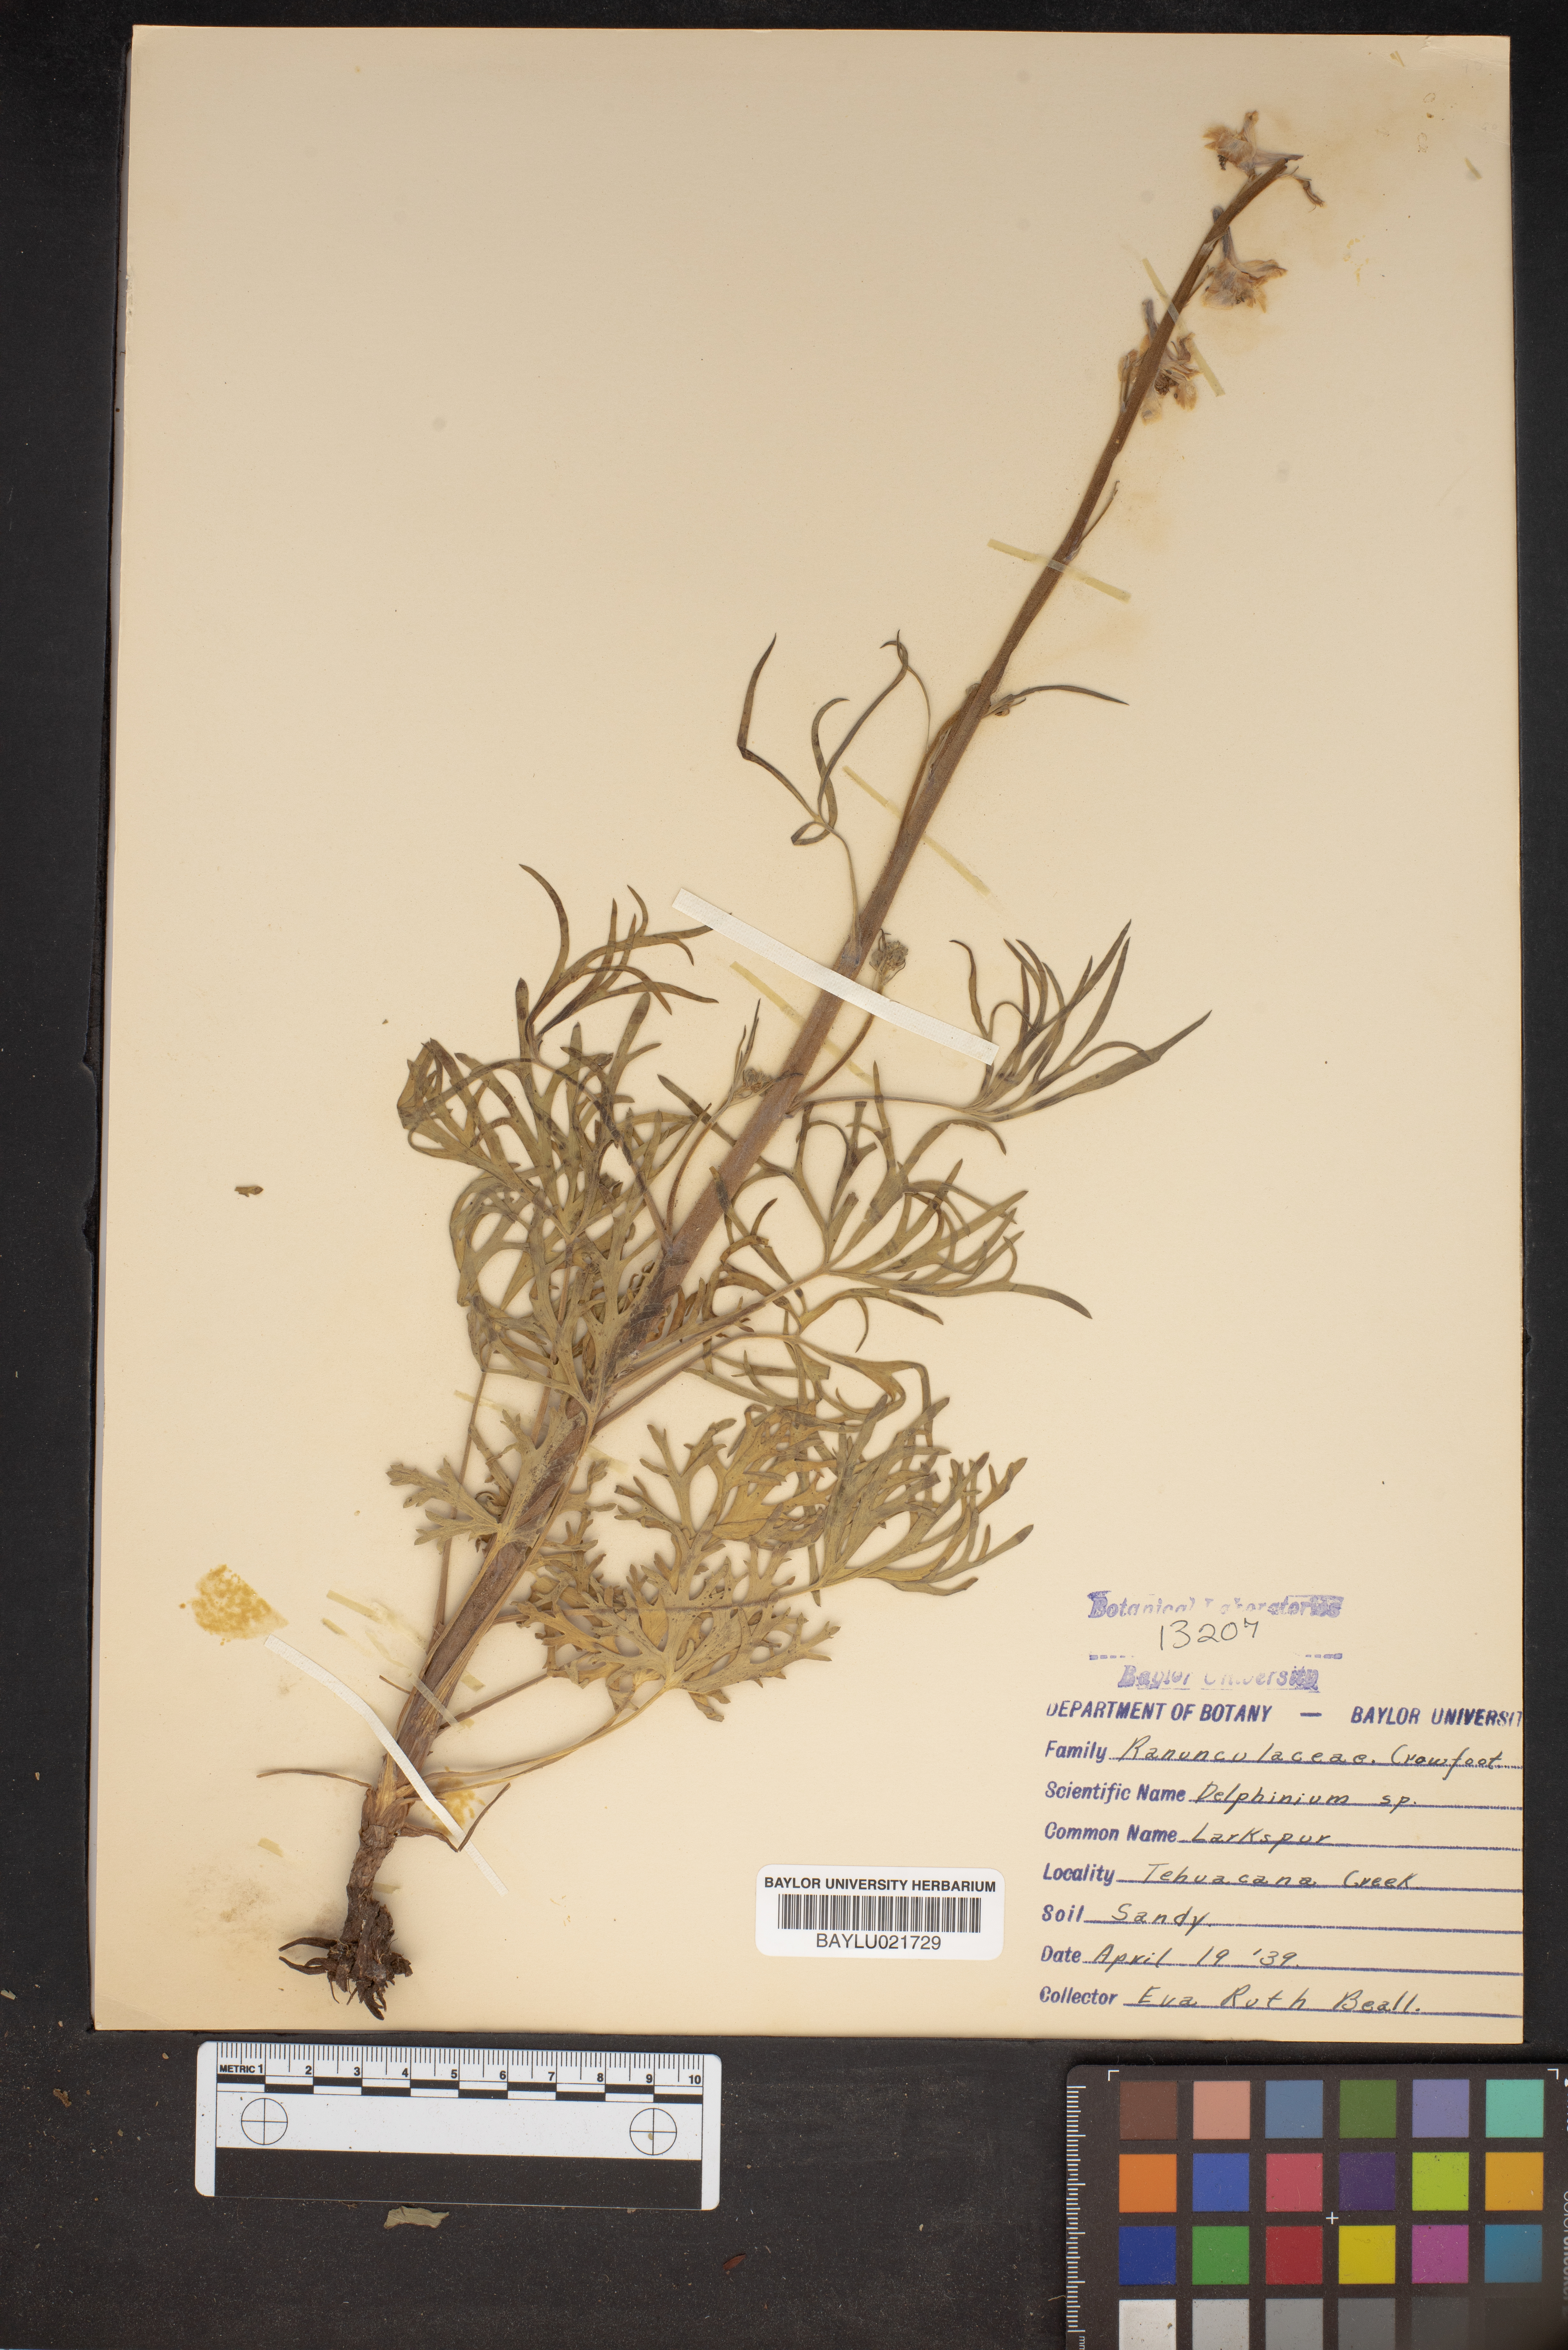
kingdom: Plantae
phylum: Tracheophyta
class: Magnoliopsida
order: Ranunculales
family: Ranunculaceae
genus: Delphinium
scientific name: Delphinium
